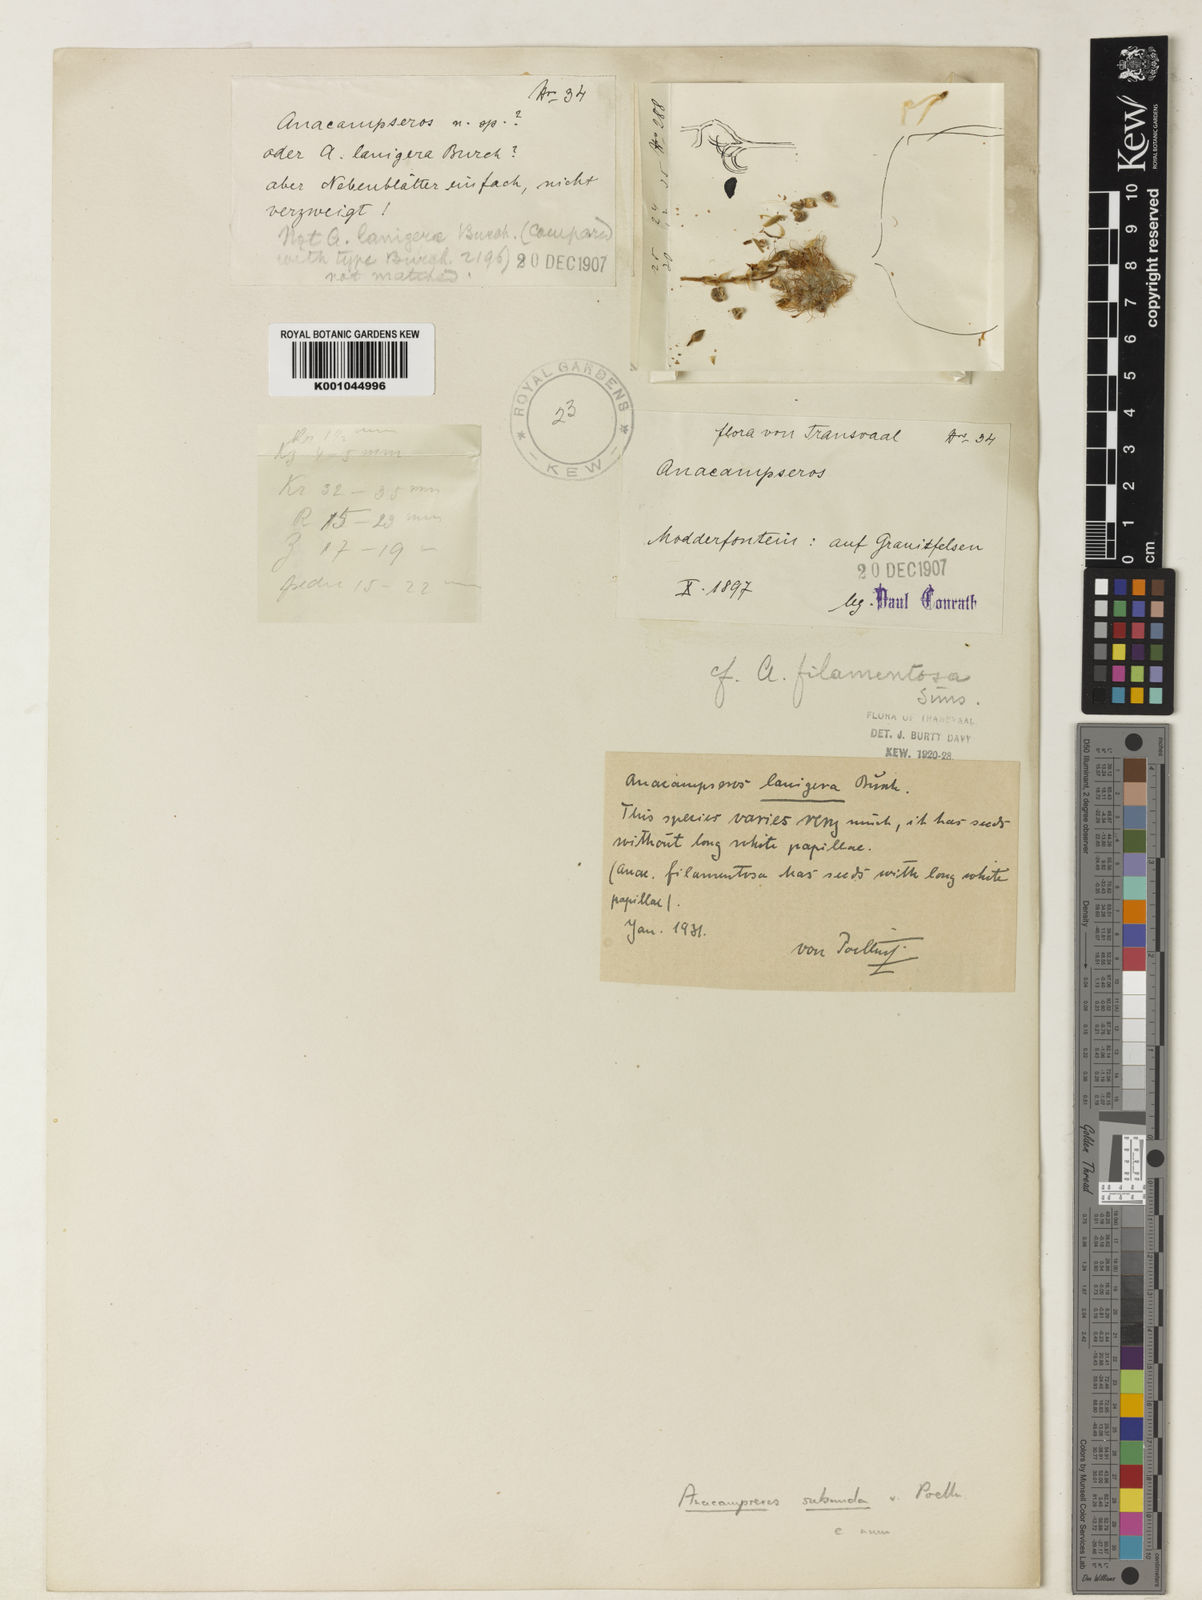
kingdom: Plantae
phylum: Tracheophyta
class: Magnoliopsida
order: Caryophyllales
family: Anacampserotaceae
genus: Anacampseros
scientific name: Anacampseros
